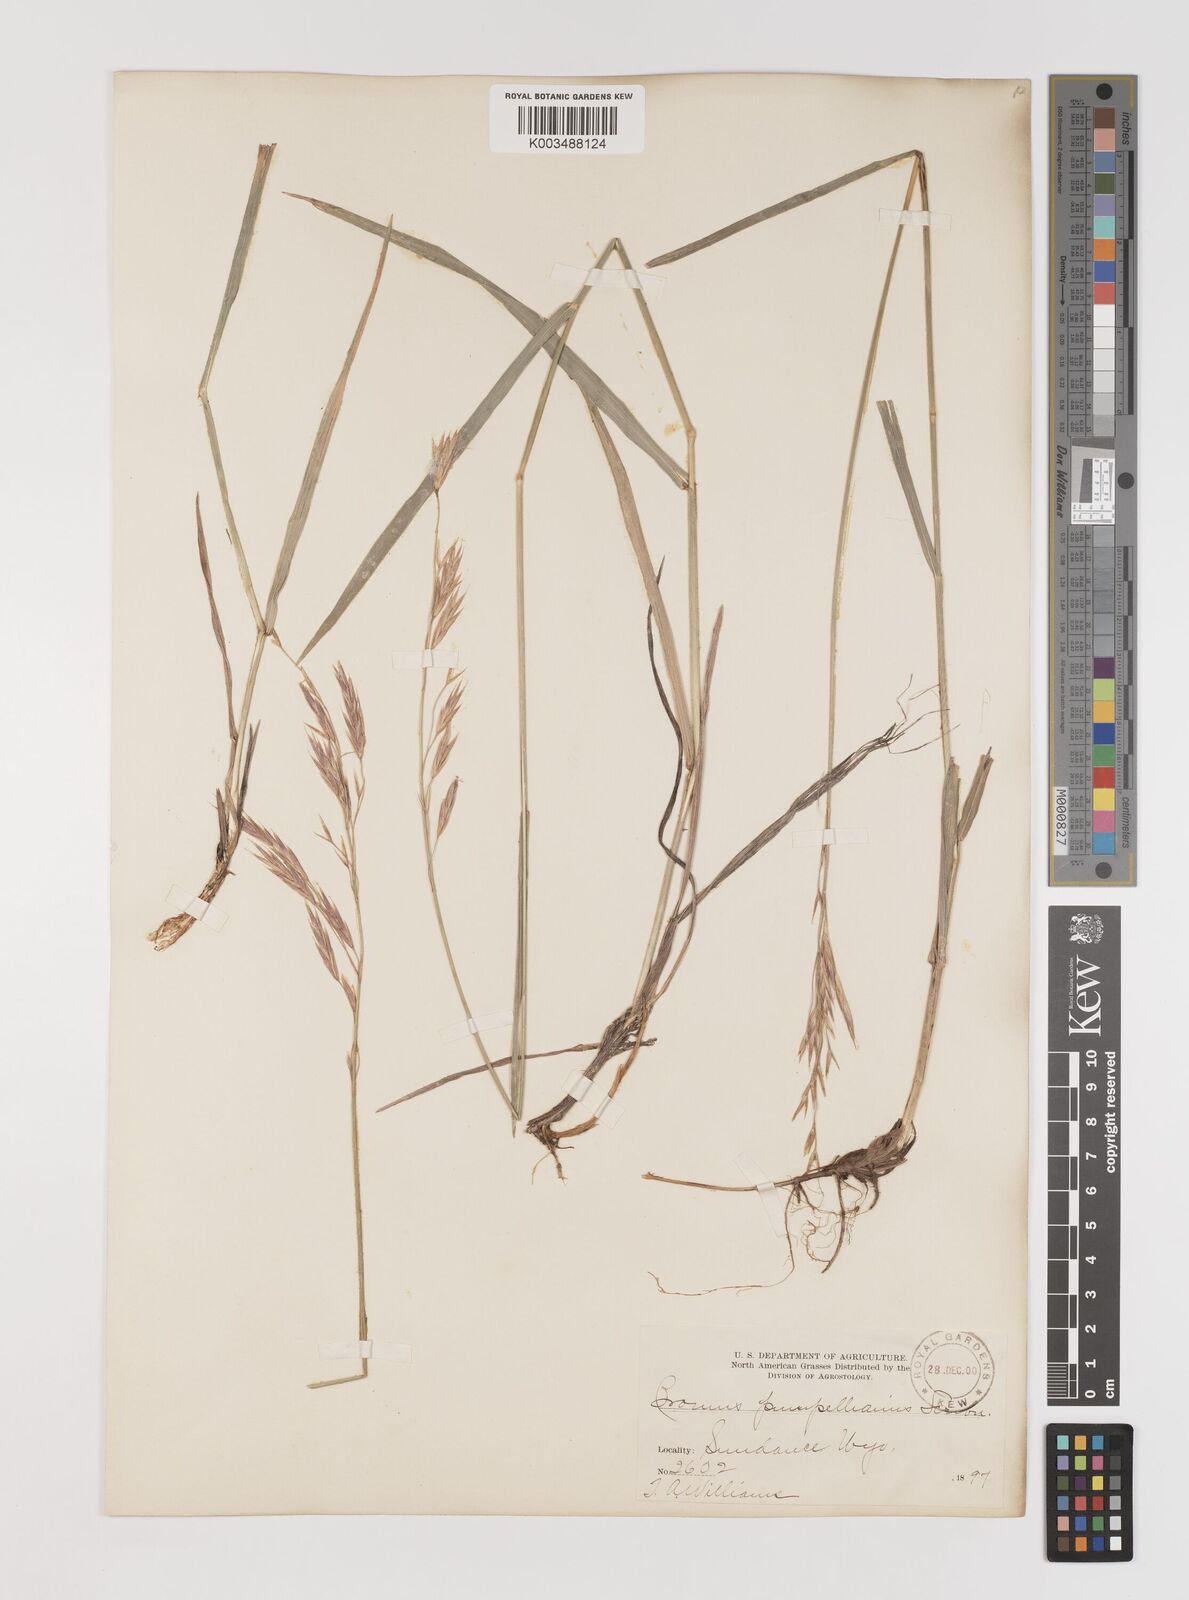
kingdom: Plantae
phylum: Tracheophyta
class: Liliopsida
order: Poales
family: Poaceae
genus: Bromus
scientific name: Bromus pumpellianus
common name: Pumpelly's brome
